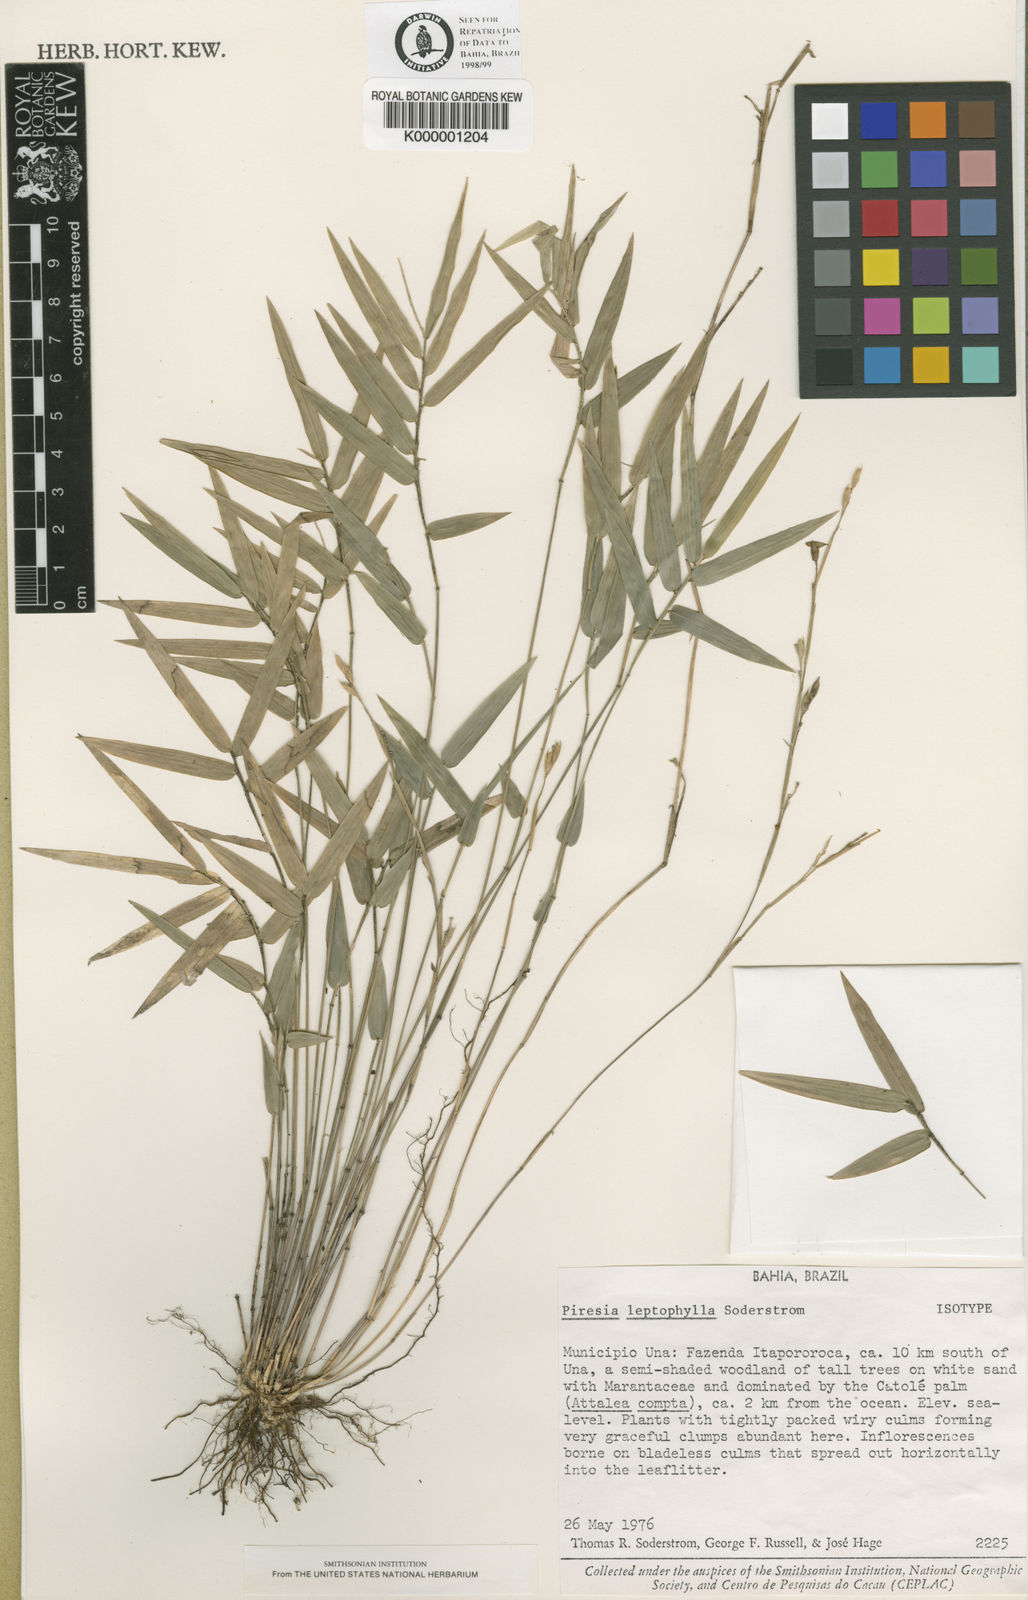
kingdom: Plantae
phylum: Tracheophyta
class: Liliopsida
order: Poales
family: Poaceae
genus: Piresia
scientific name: Piresia leptophylla
